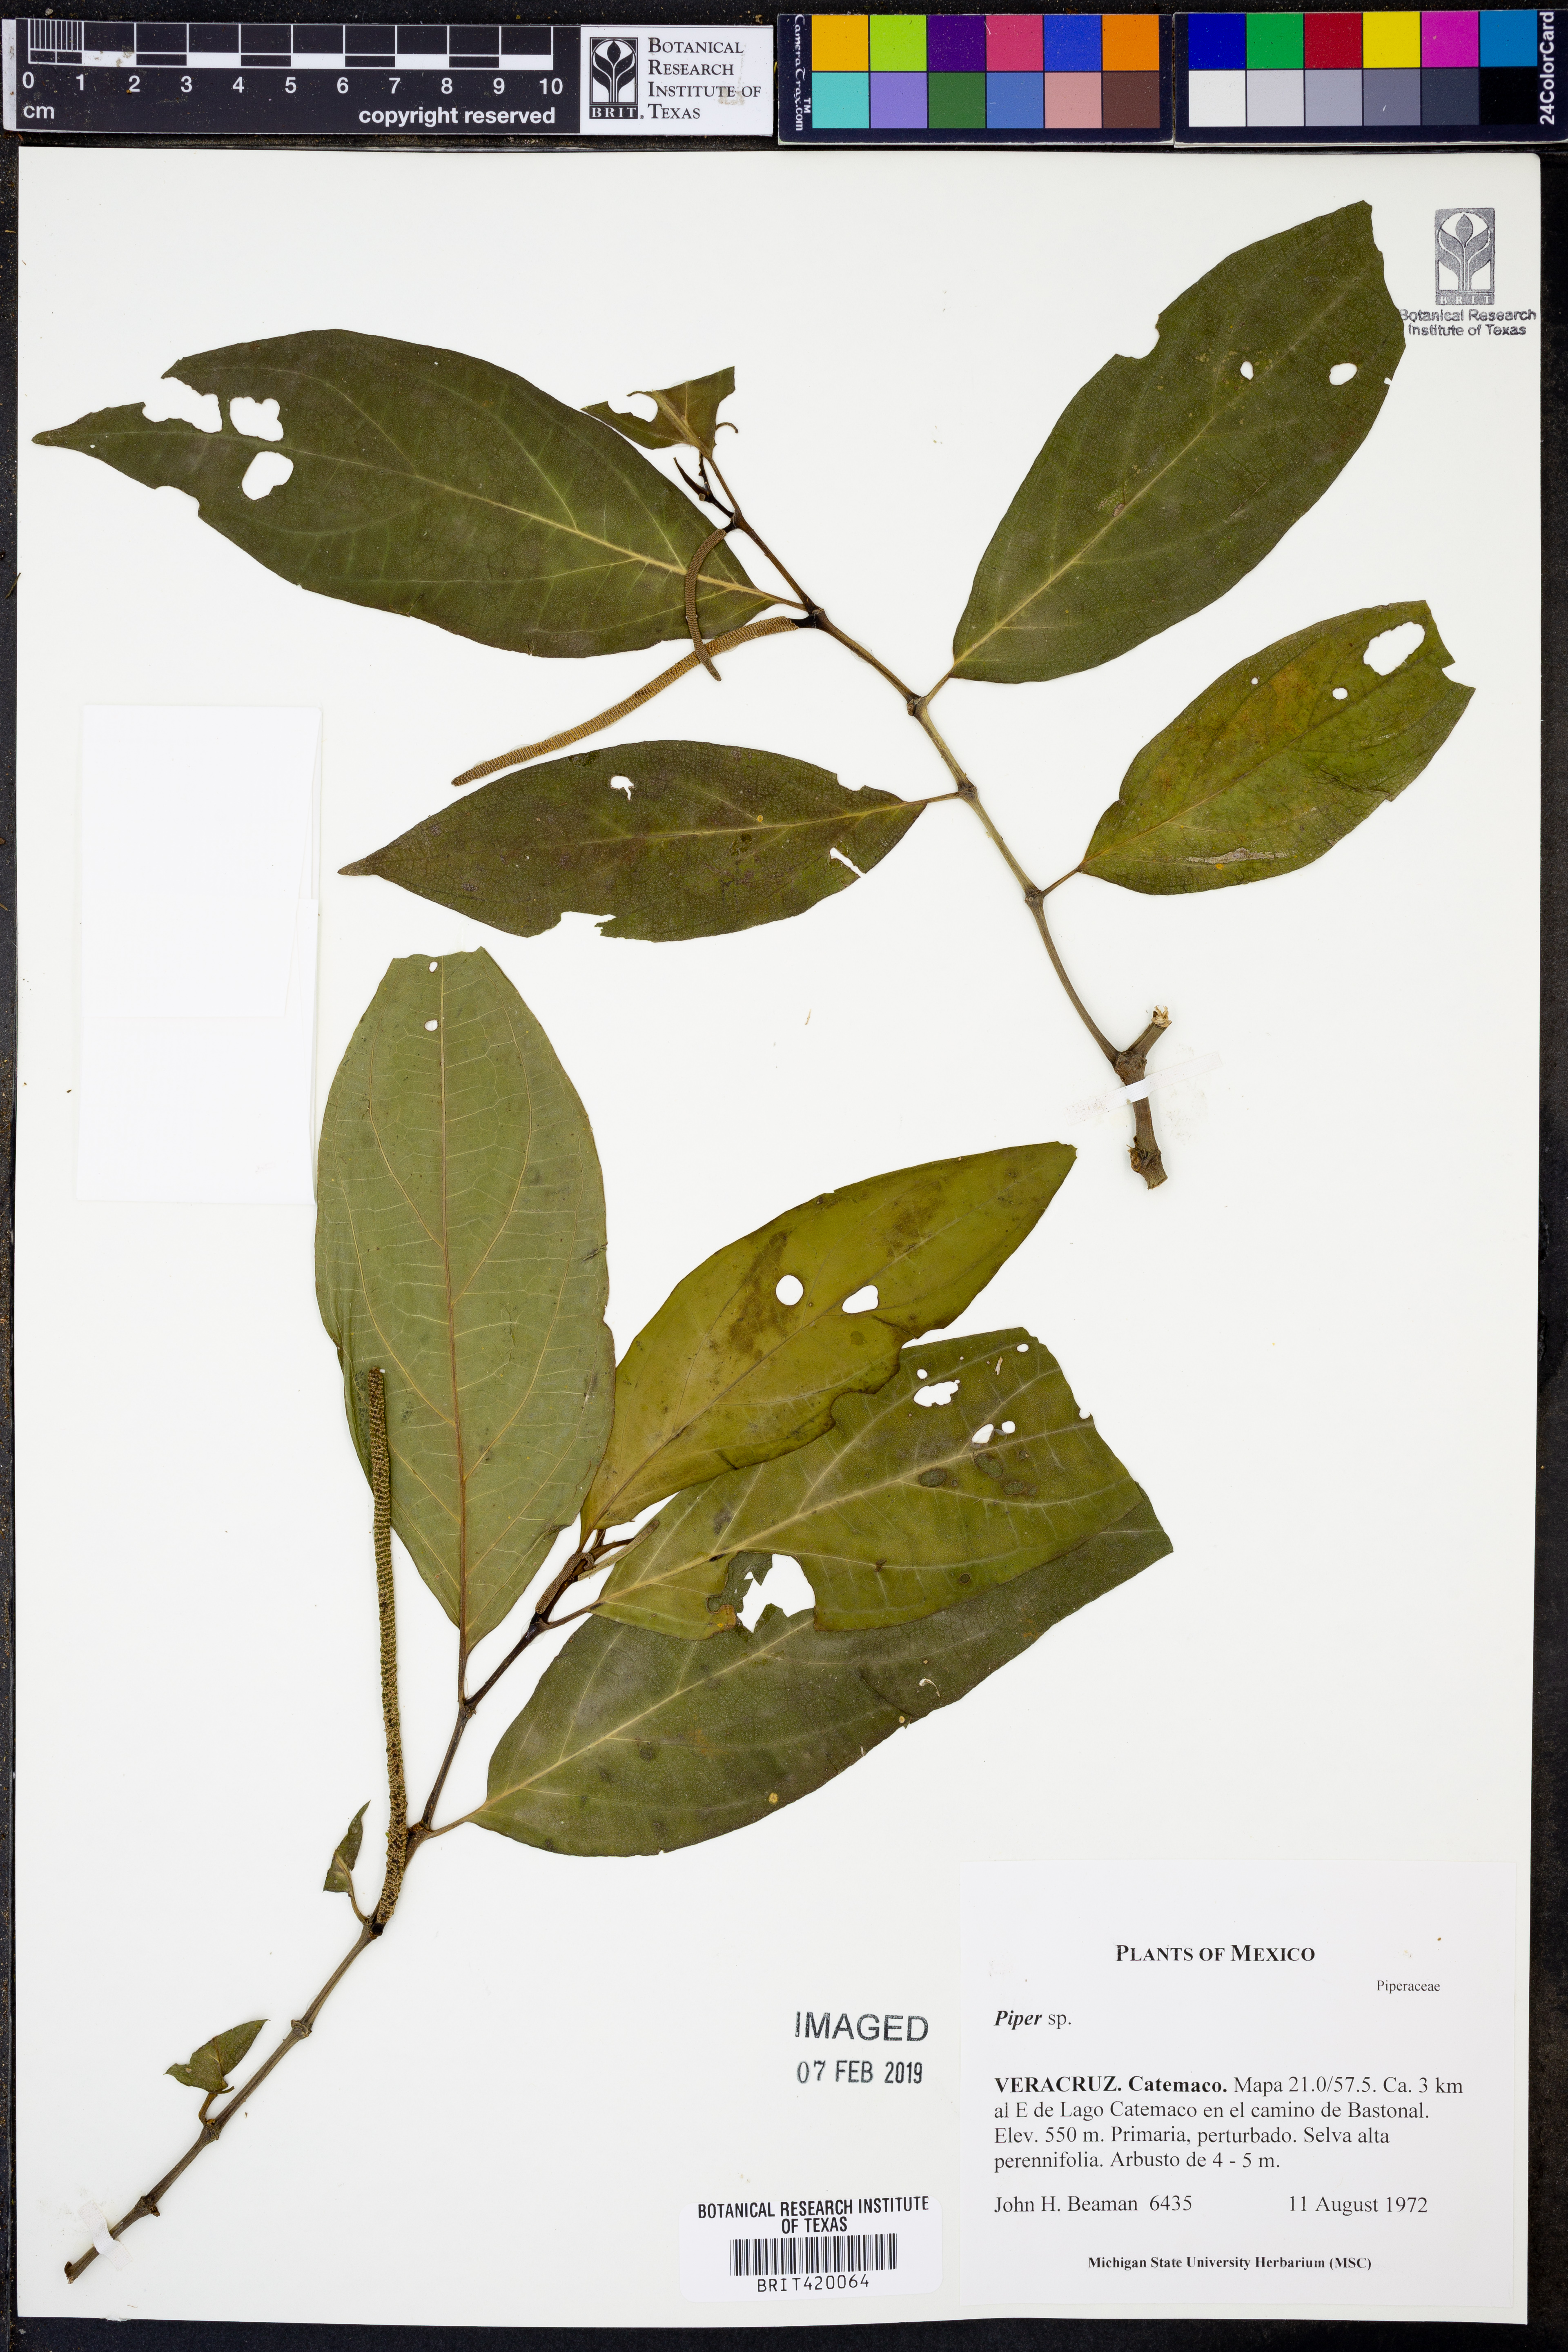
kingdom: Plantae
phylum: Tracheophyta
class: Magnoliopsida
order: Piperales
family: Piperaceae
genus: Piper
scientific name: Piper
